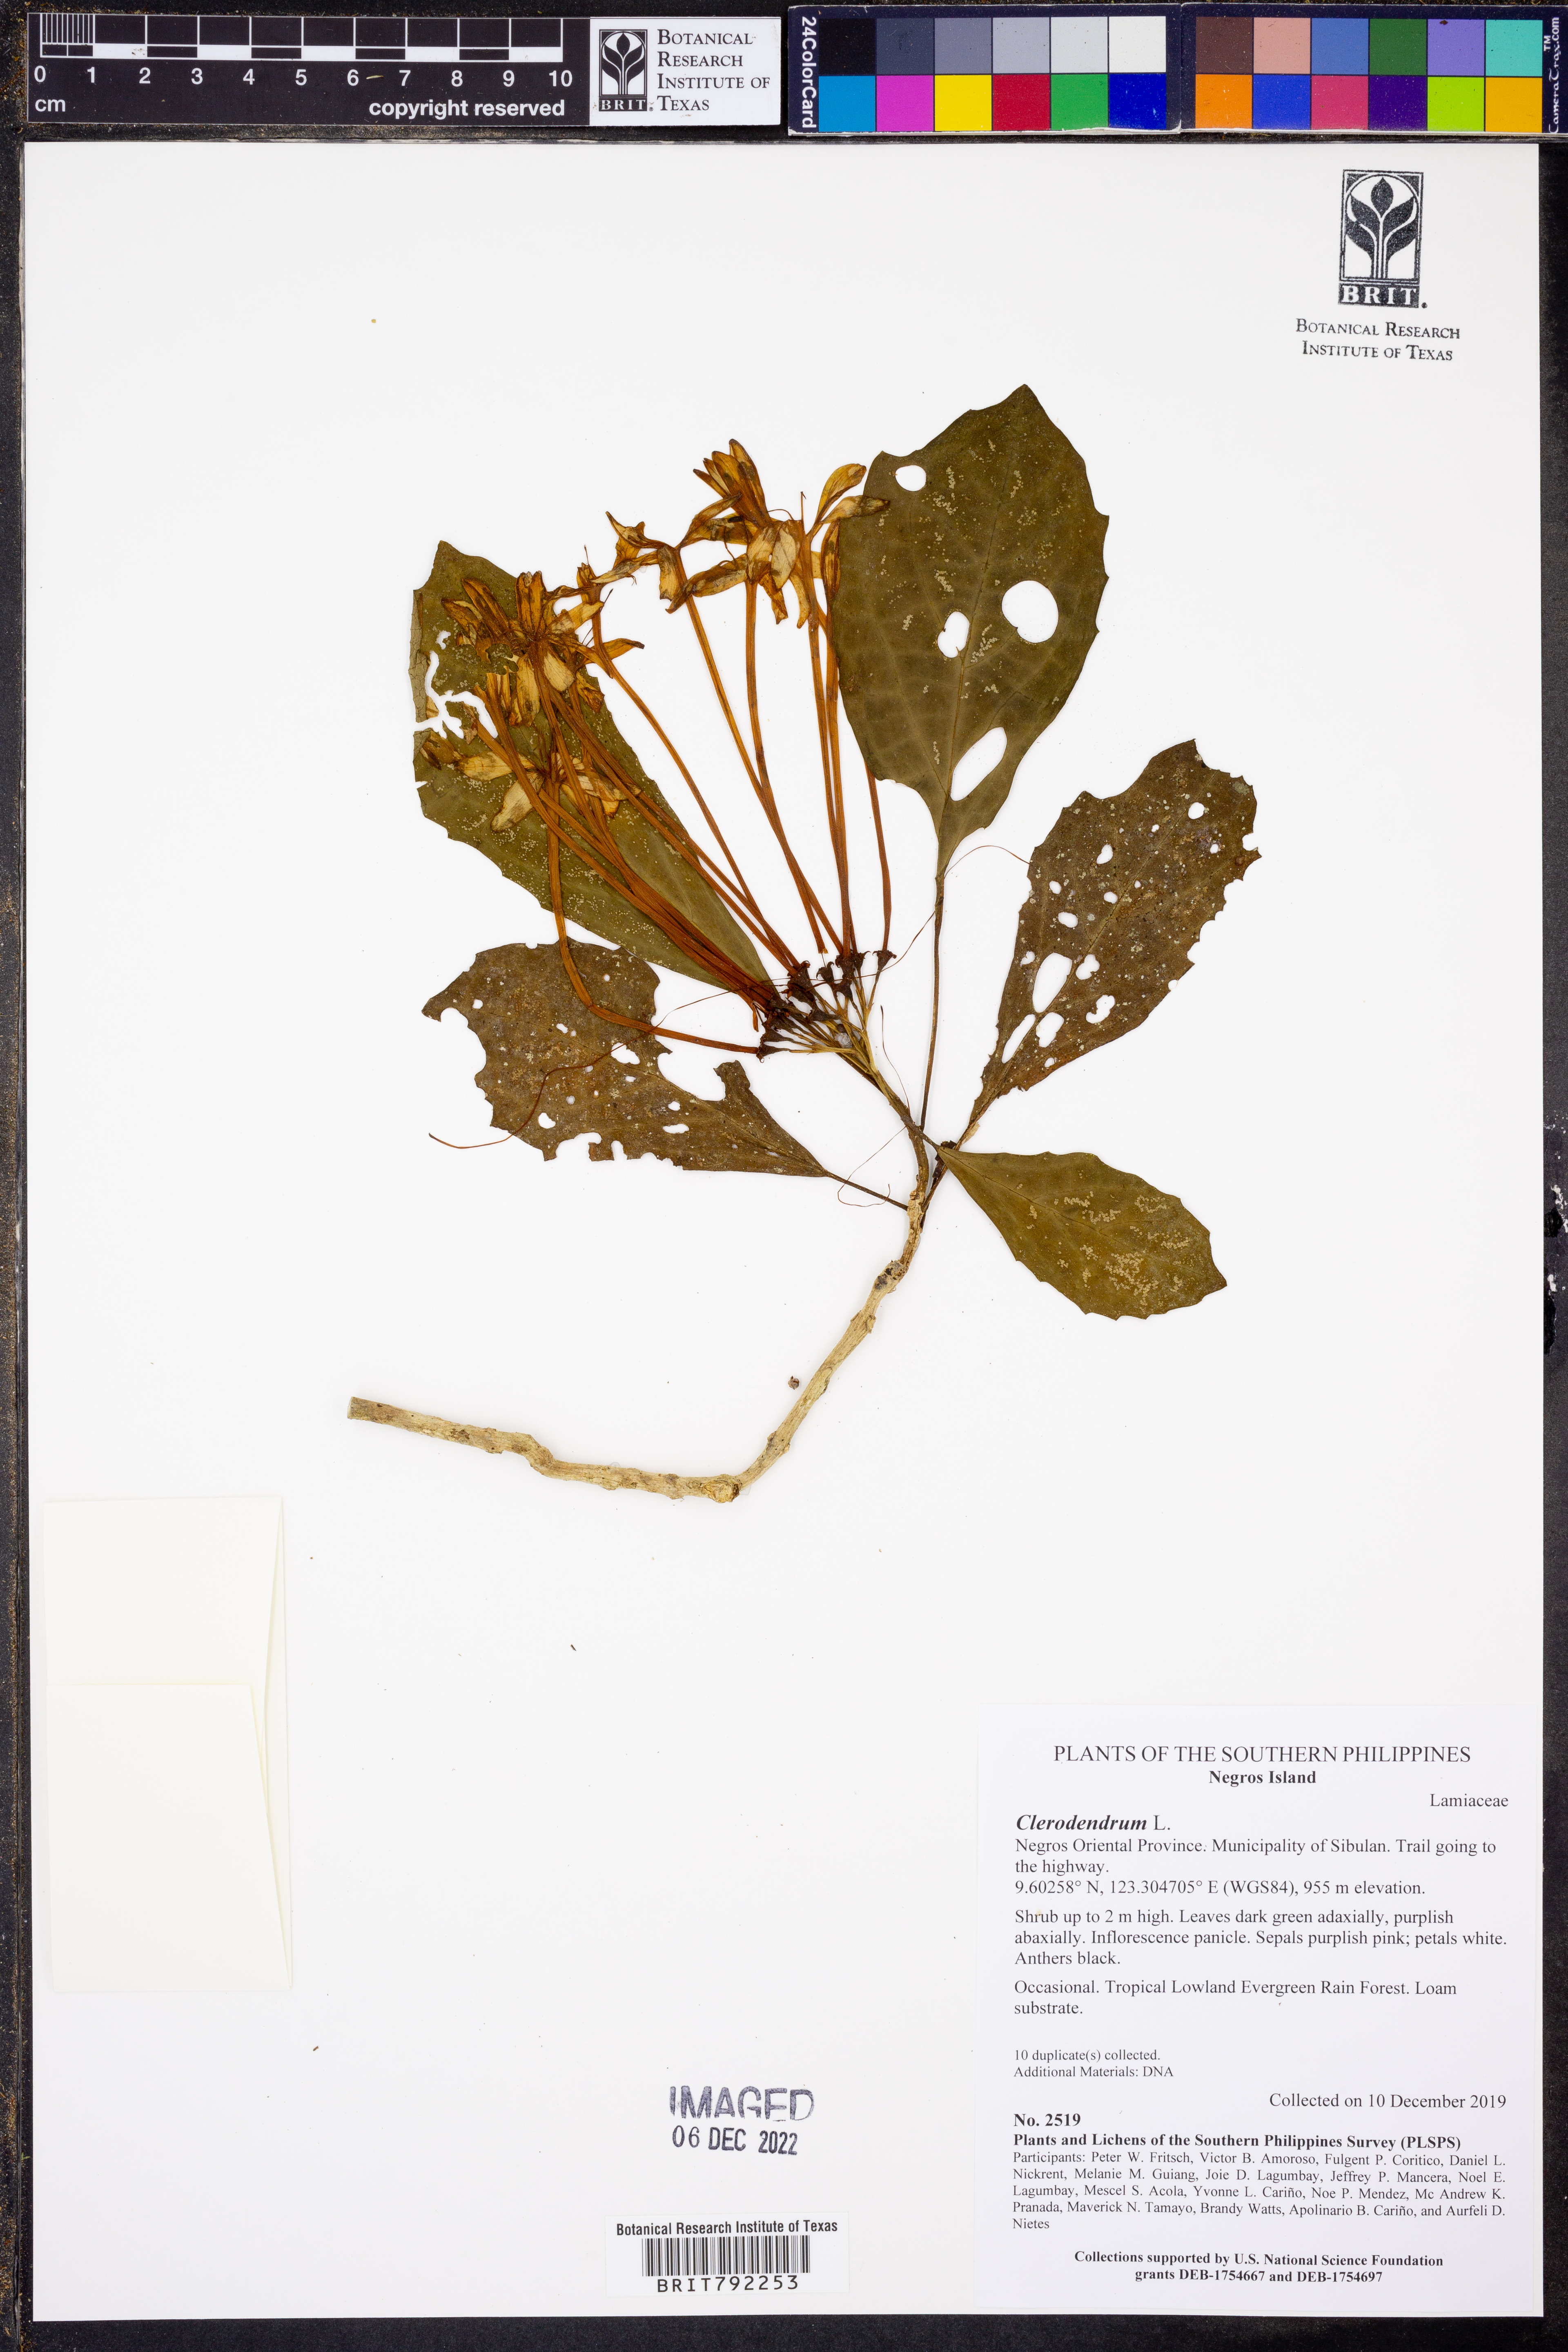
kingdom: Plantae
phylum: Tracheophyta
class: Magnoliopsida
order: Lamiales
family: Lamiaceae
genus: Clerodendrum
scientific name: Clerodendrum
